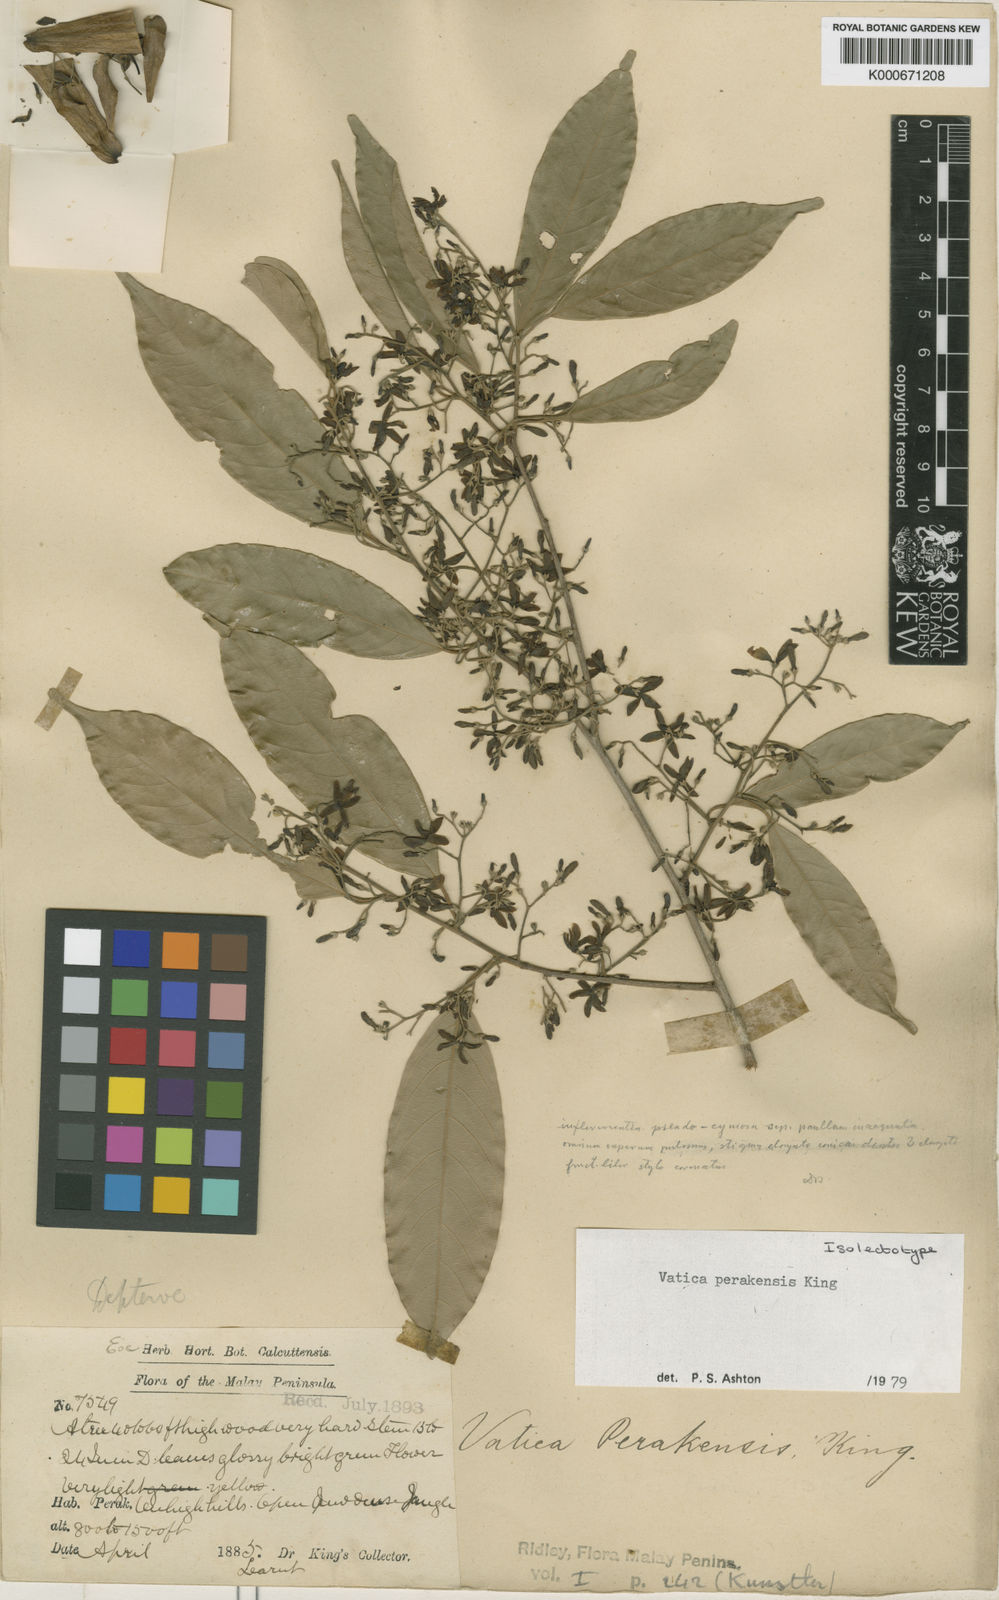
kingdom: Plantae
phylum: Tracheophyta
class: Magnoliopsida
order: Malvales
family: Dipterocarpaceae
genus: Vatica
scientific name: Vatica perakensis
